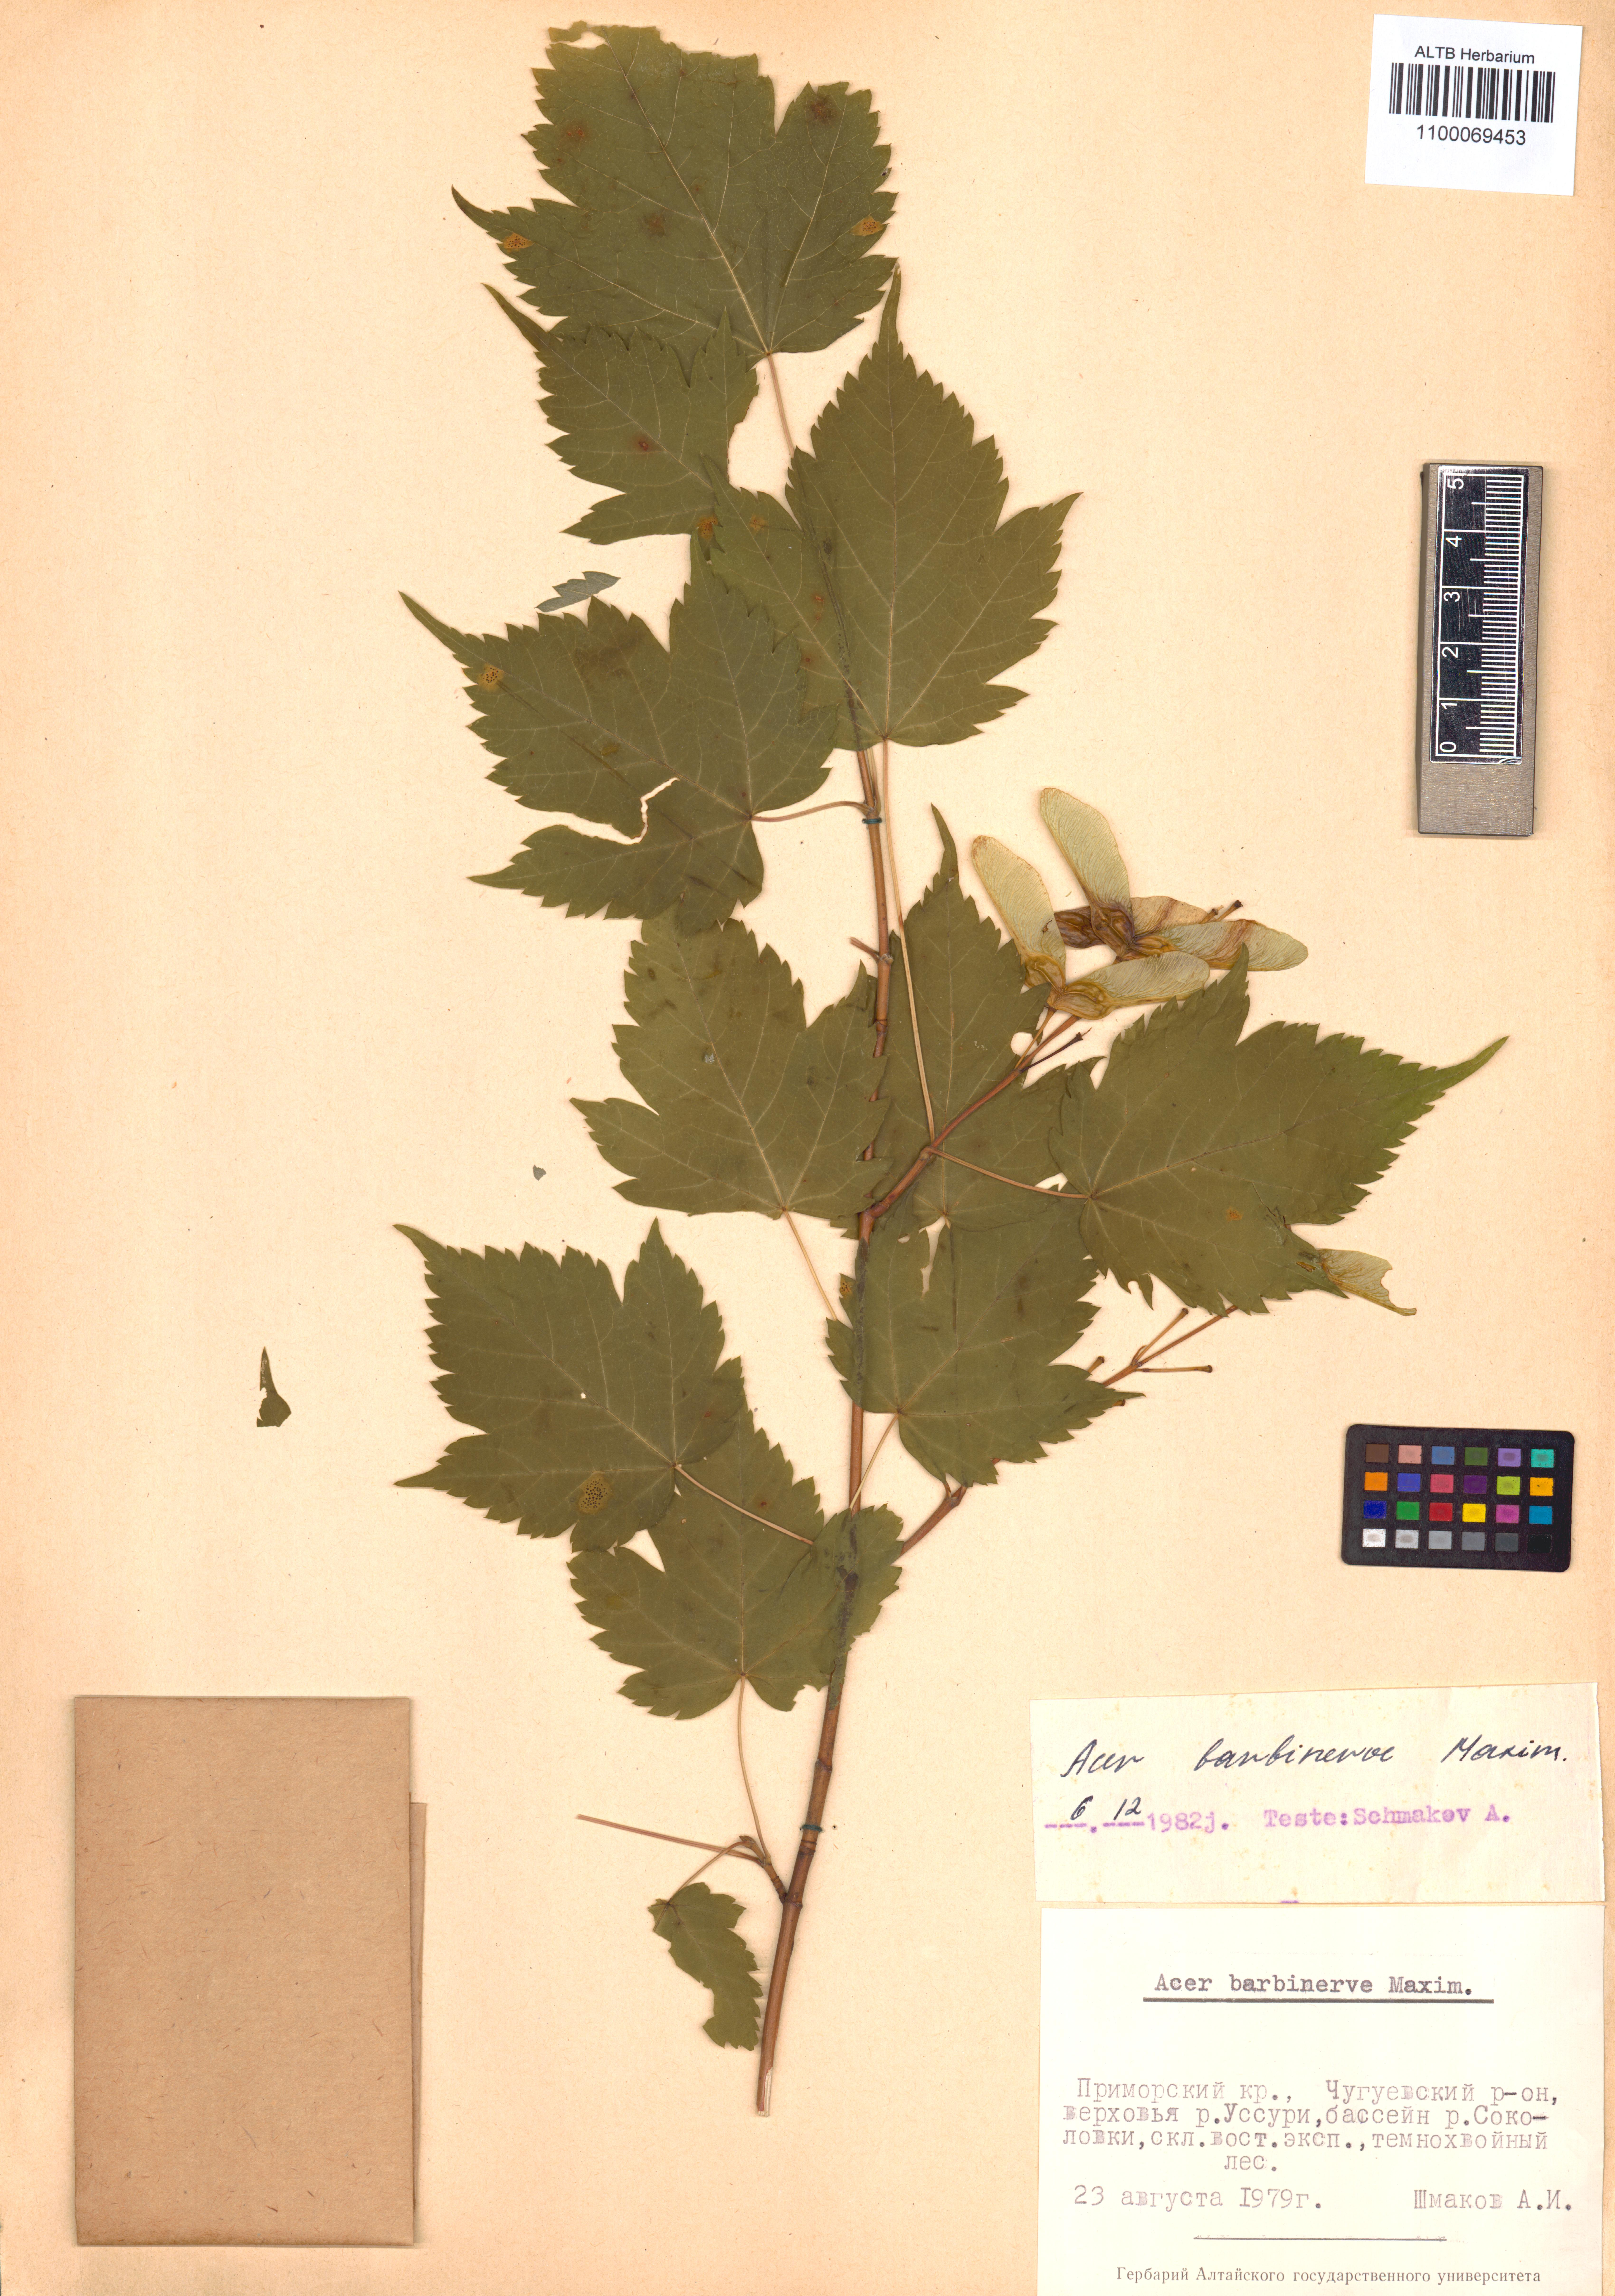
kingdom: Plantae
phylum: Tracheophyta
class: Magnoliopsida
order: Sapindales
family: Sapindaceae
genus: Acer
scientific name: Acer barbinerve
